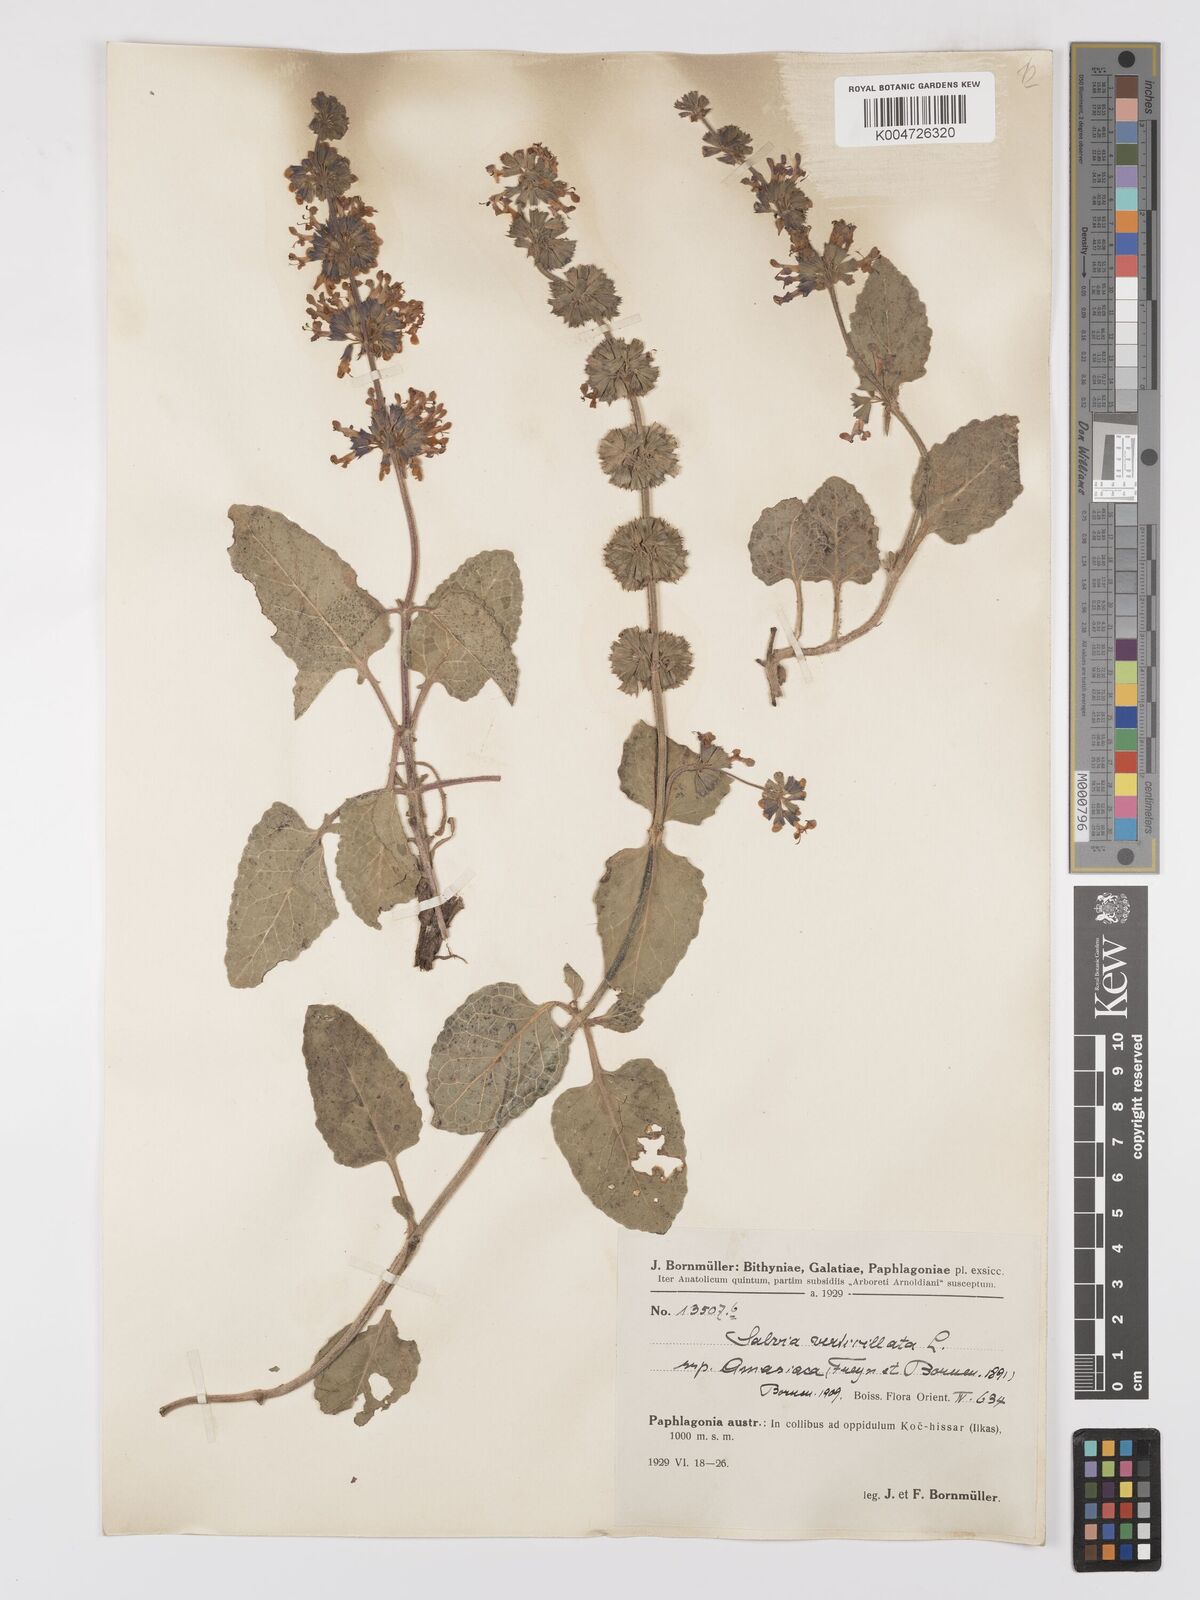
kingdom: Plantae
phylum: Tracheophyta
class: Magnoliopsida
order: Lamiales
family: Lamiaceae
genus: Salvia
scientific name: Salvia verticillata
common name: Whorled clary
